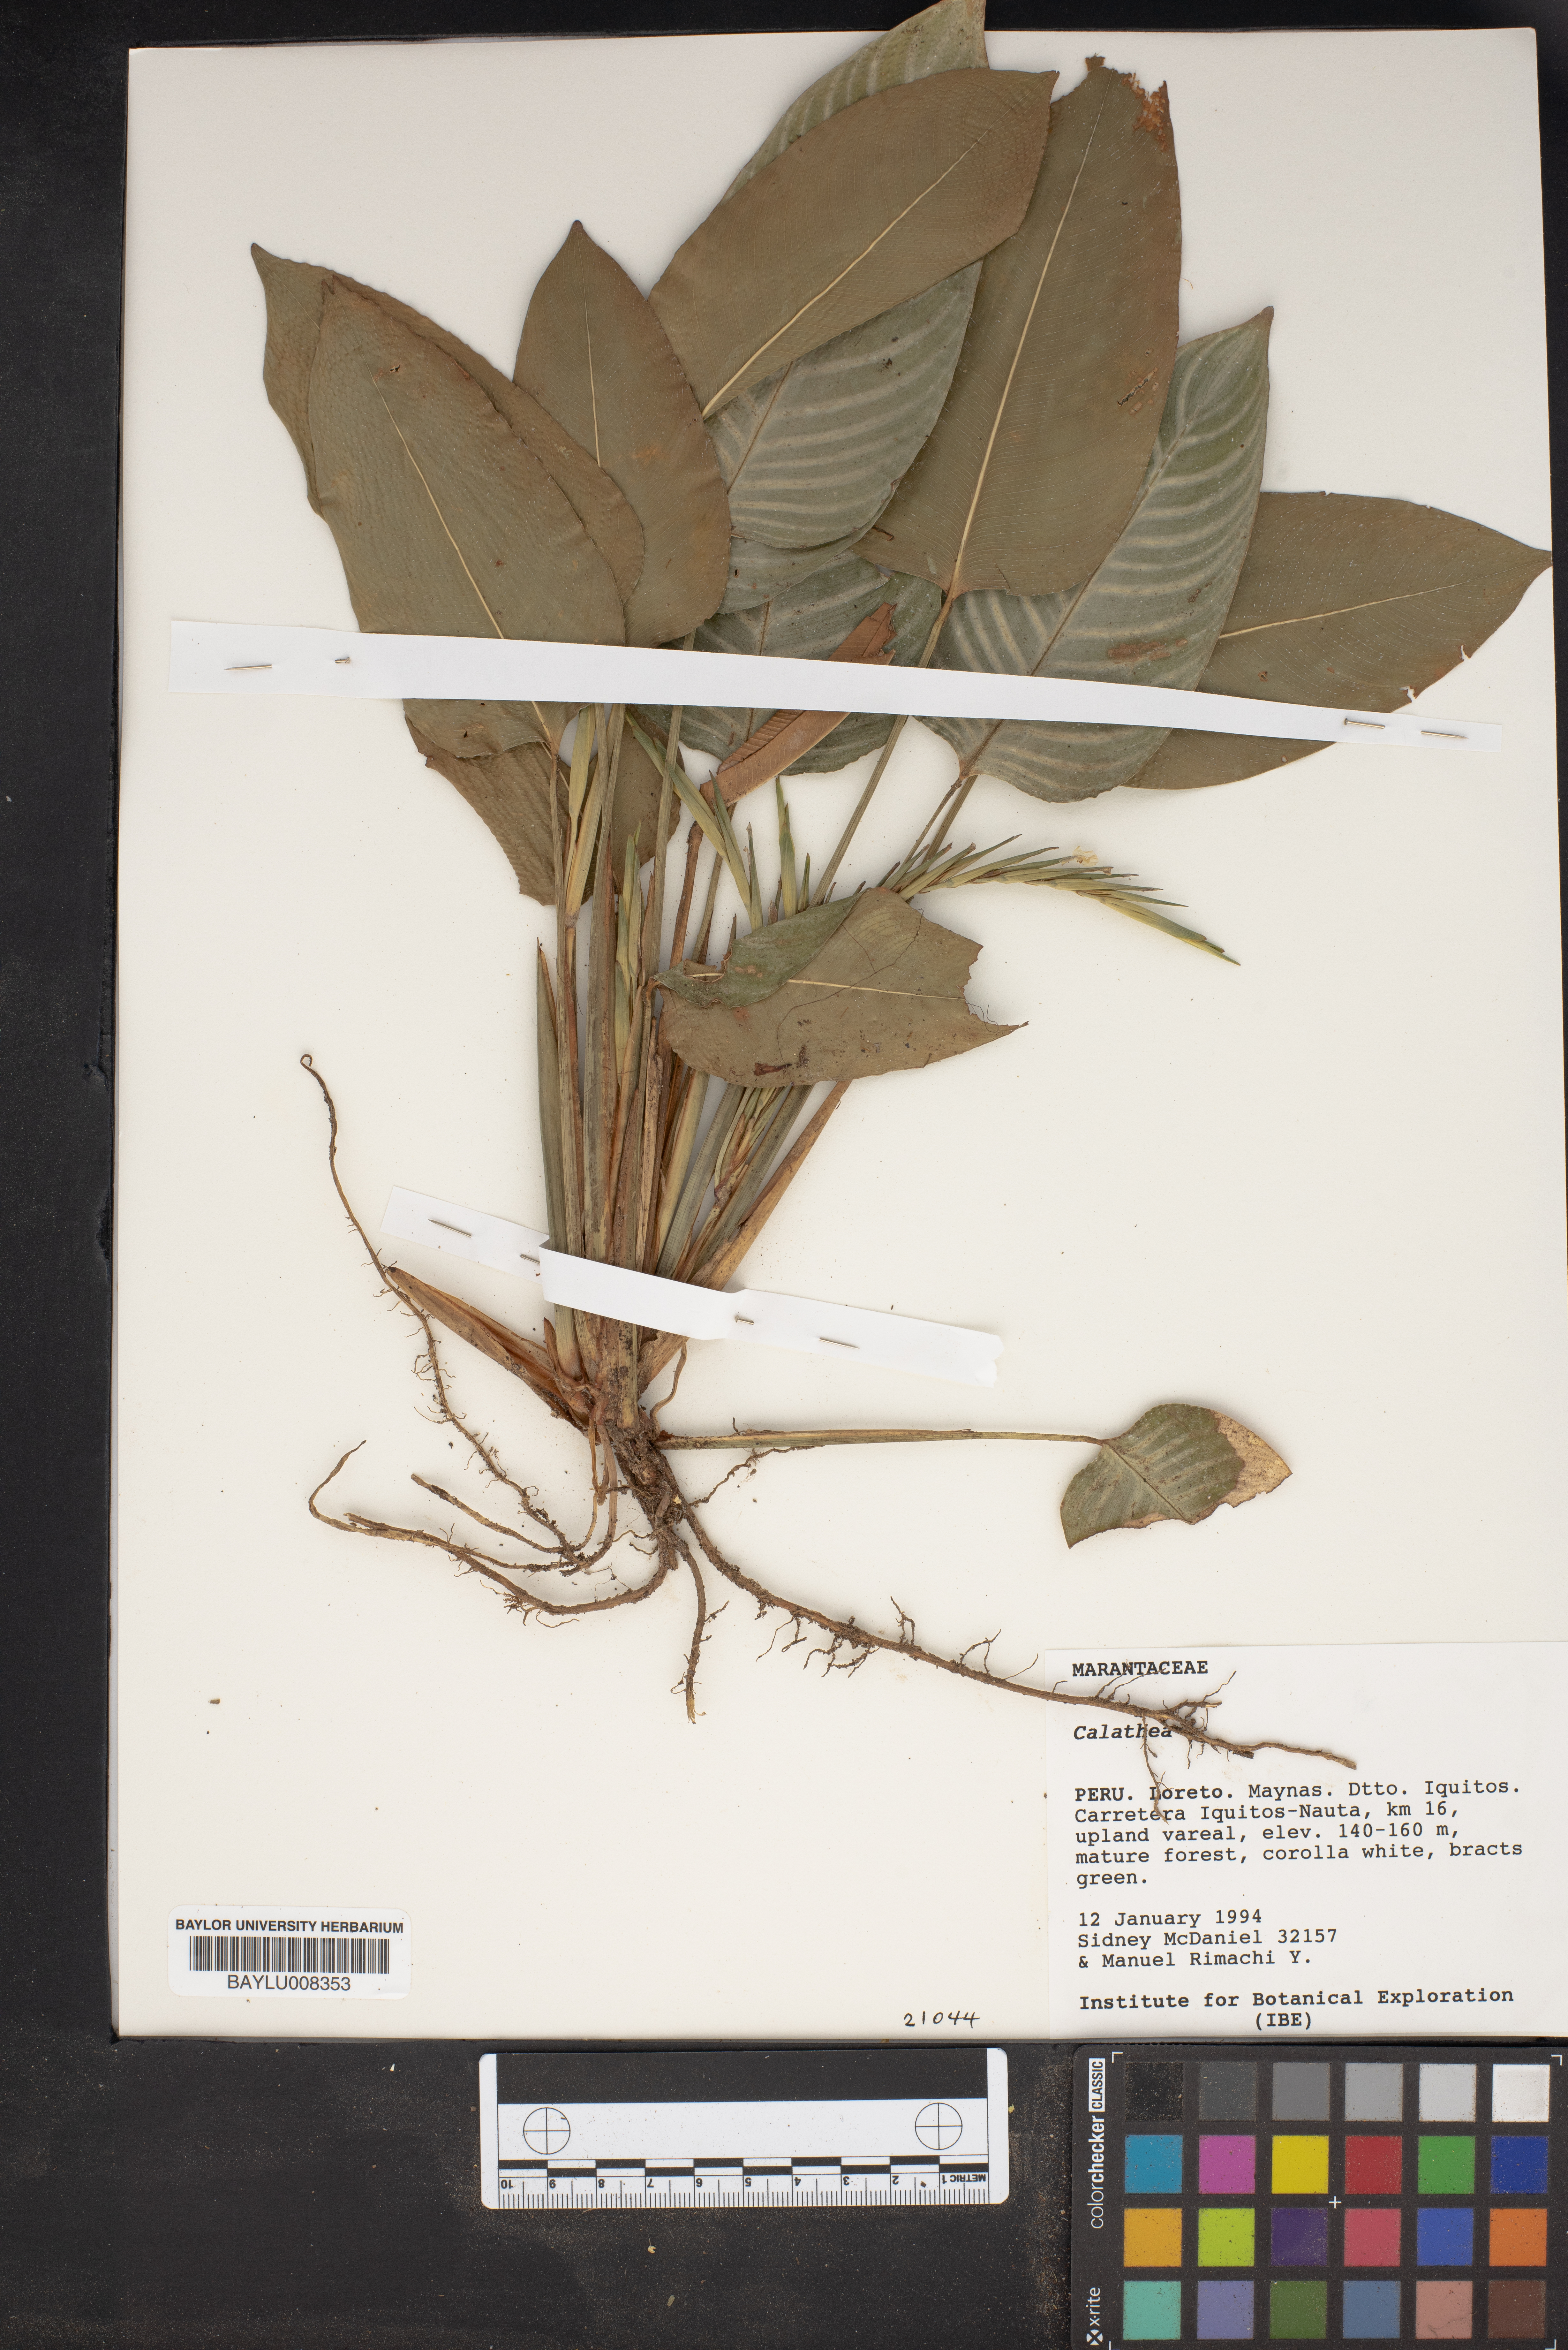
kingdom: Plantae
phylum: Tracheophyta
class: Liliopsida
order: Zingiberales
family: Marantaceae
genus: Calathea
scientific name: Calathea
